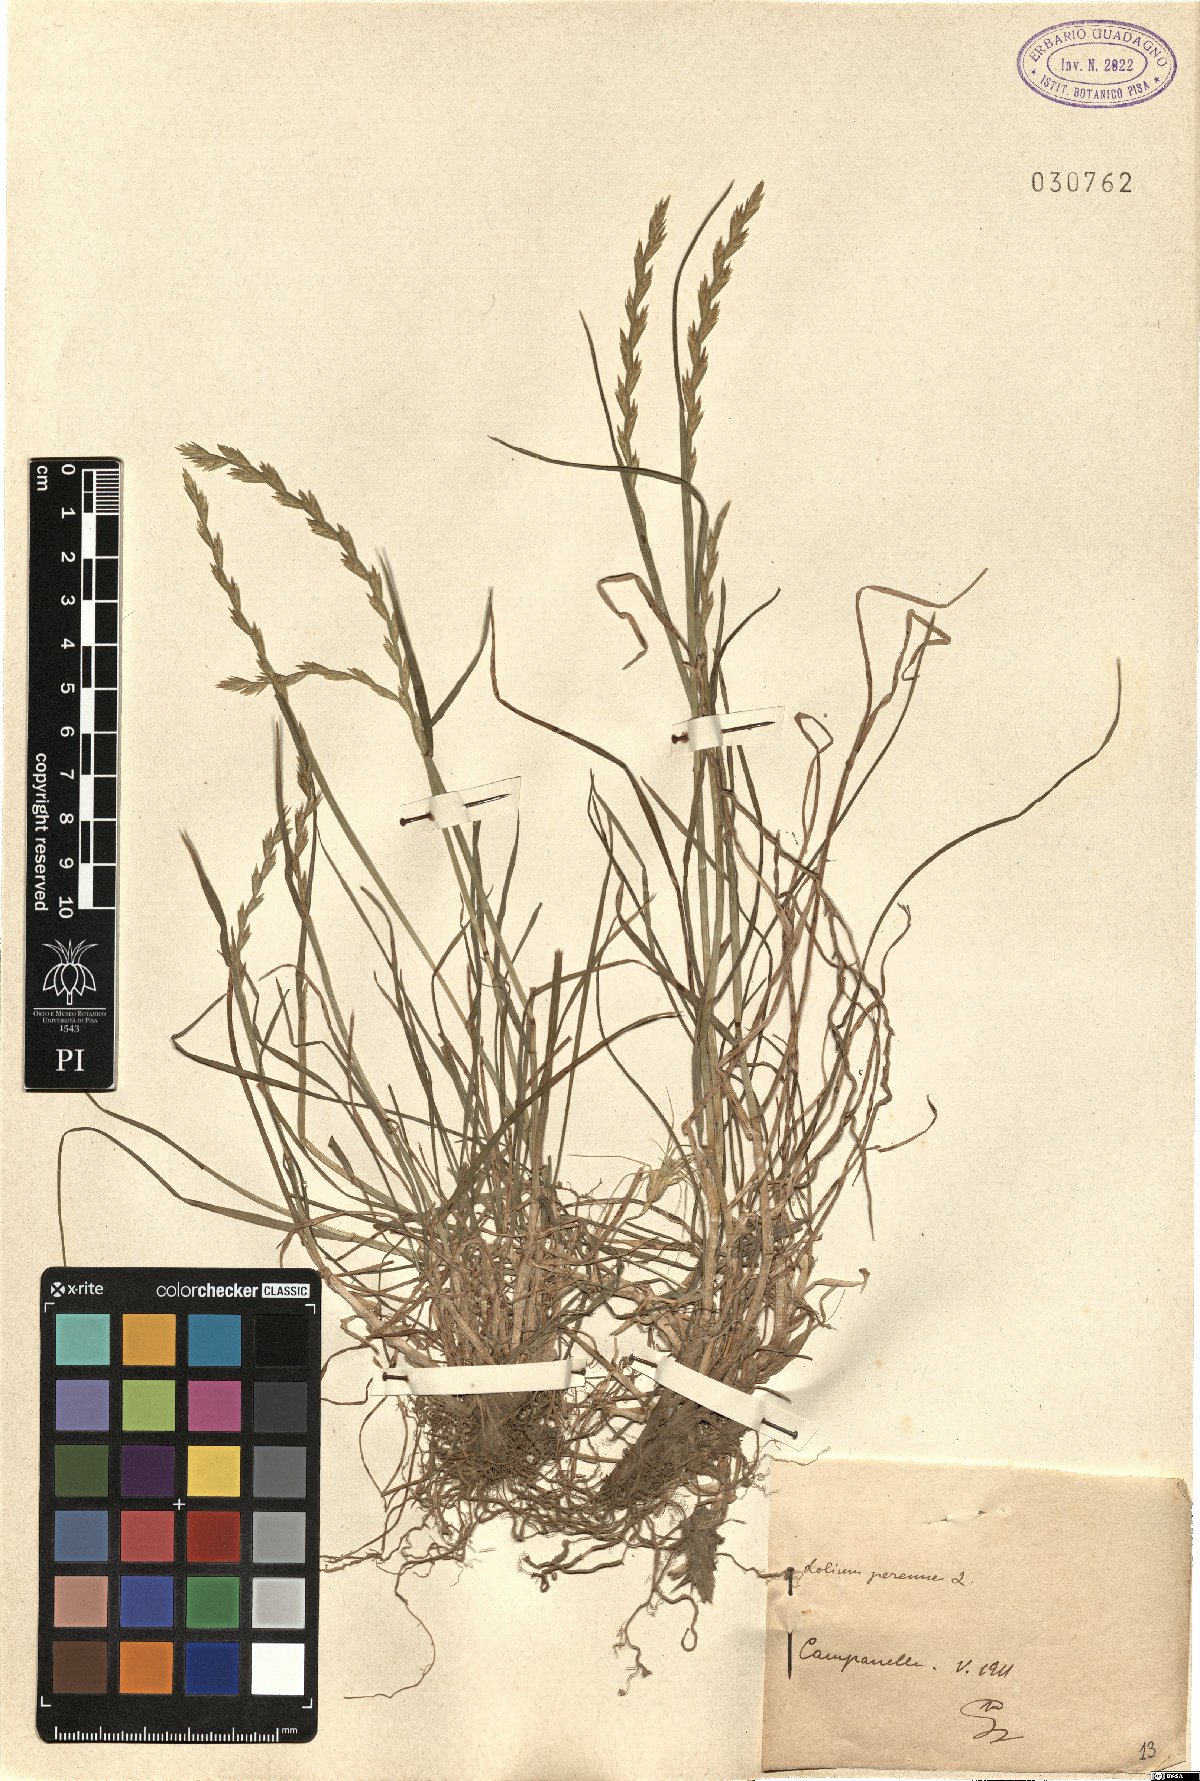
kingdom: Plantae
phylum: Tracheophyta
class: Liliopsida
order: Poales
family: Poaceae
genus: Lolium
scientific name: Lolium perenne
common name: Perennial ryegrass
